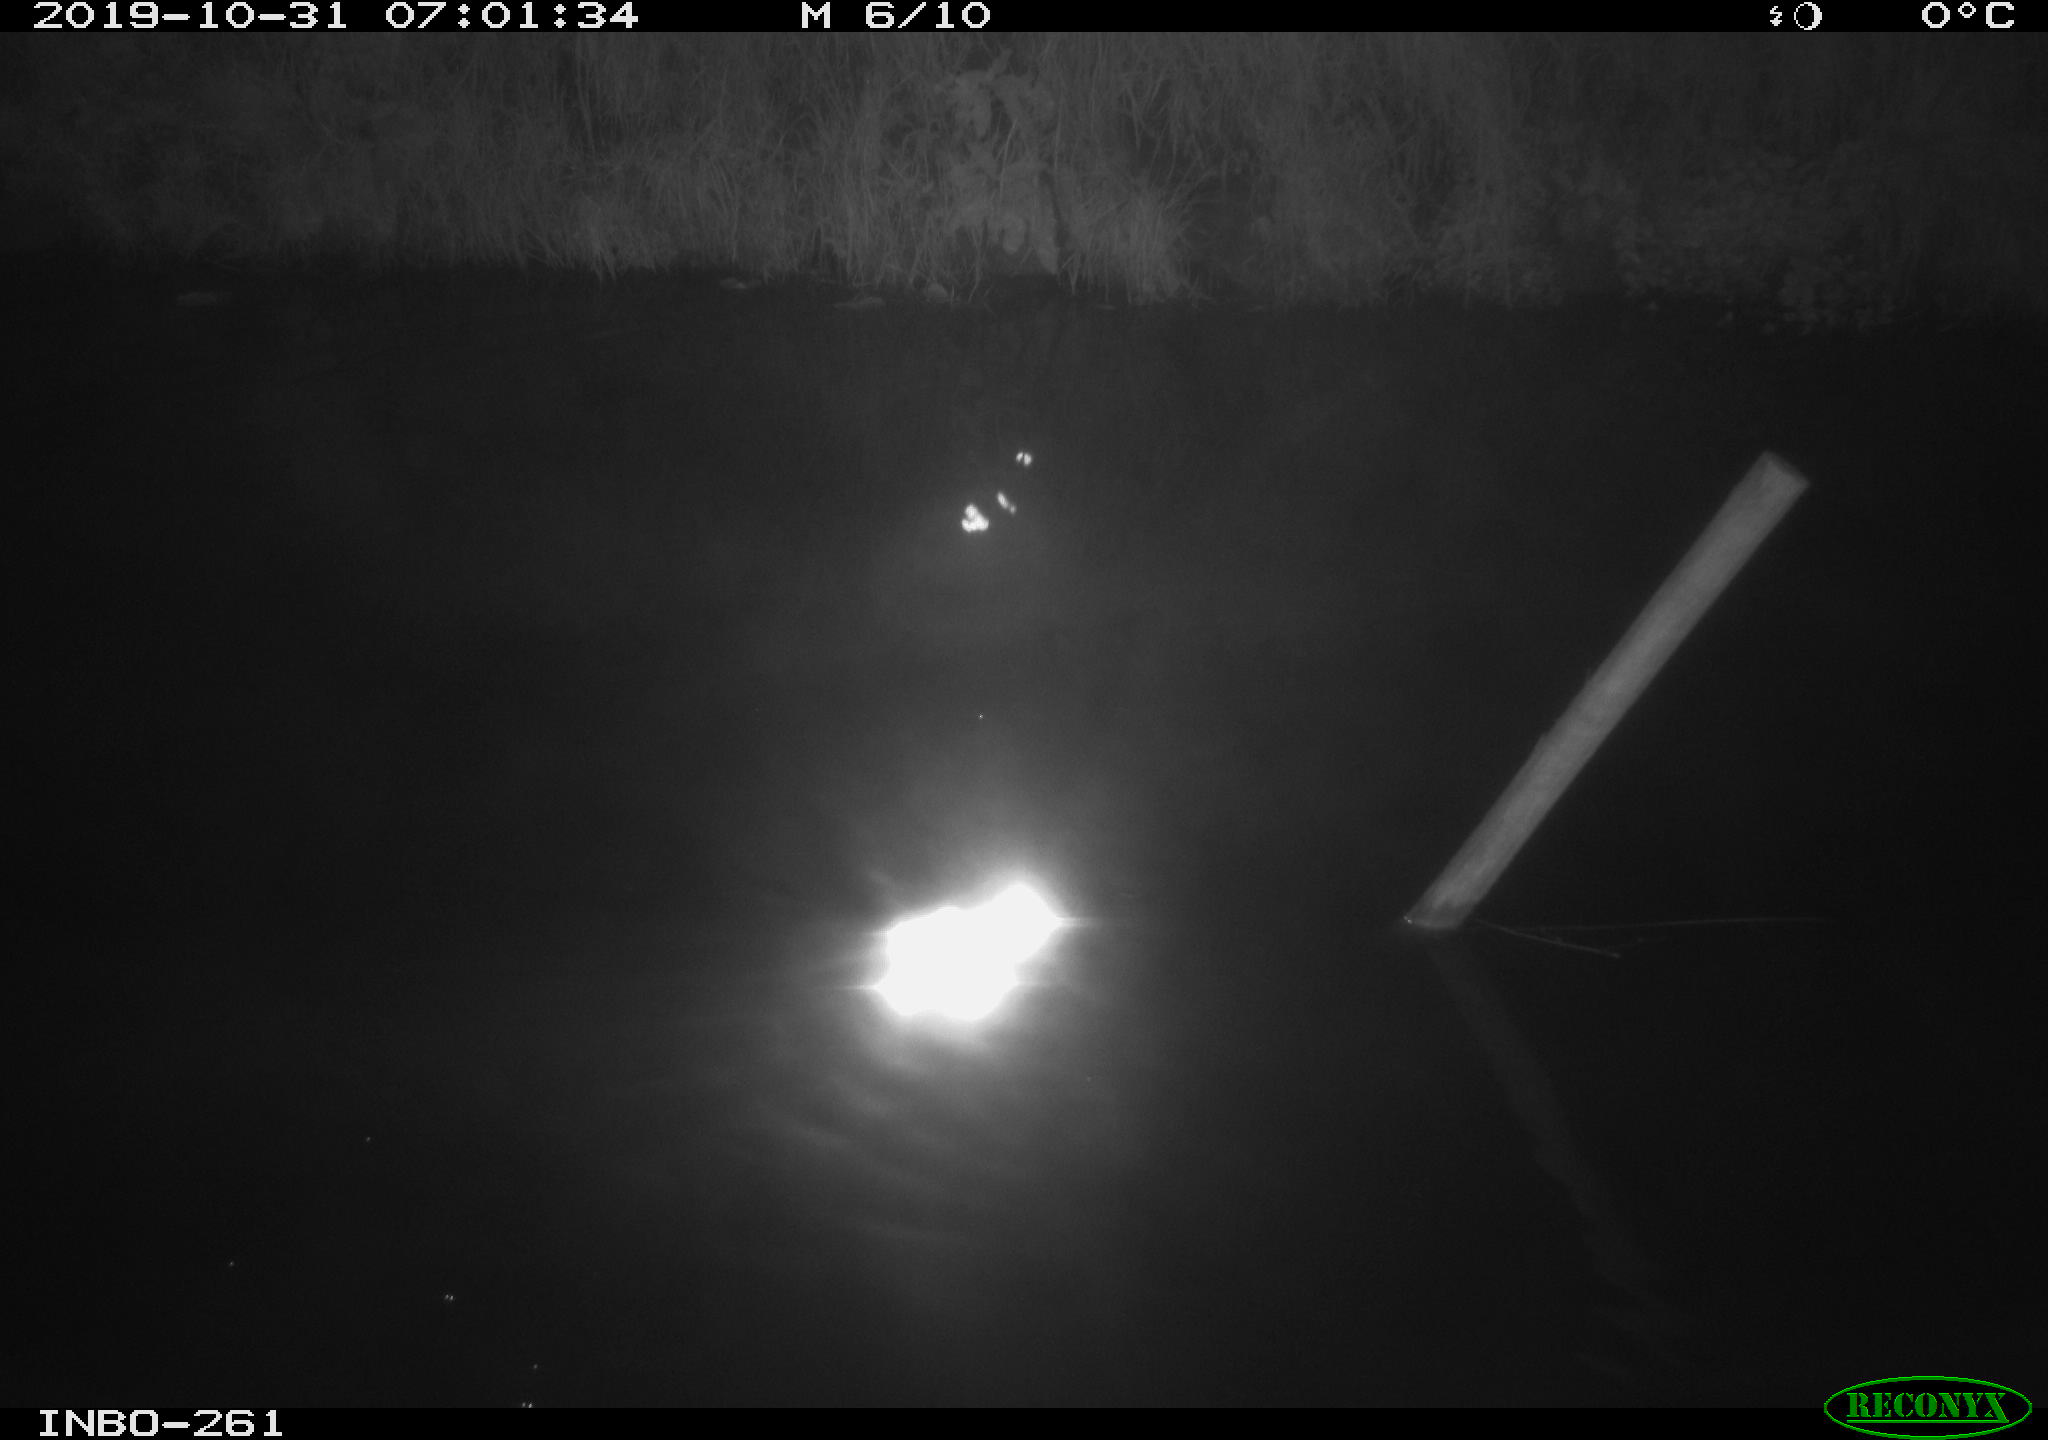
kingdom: Animalia
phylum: Chordata
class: Aves
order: Anseriformes
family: Anatidae
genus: Anas
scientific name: Anas platyrhynchos
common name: Mallard
